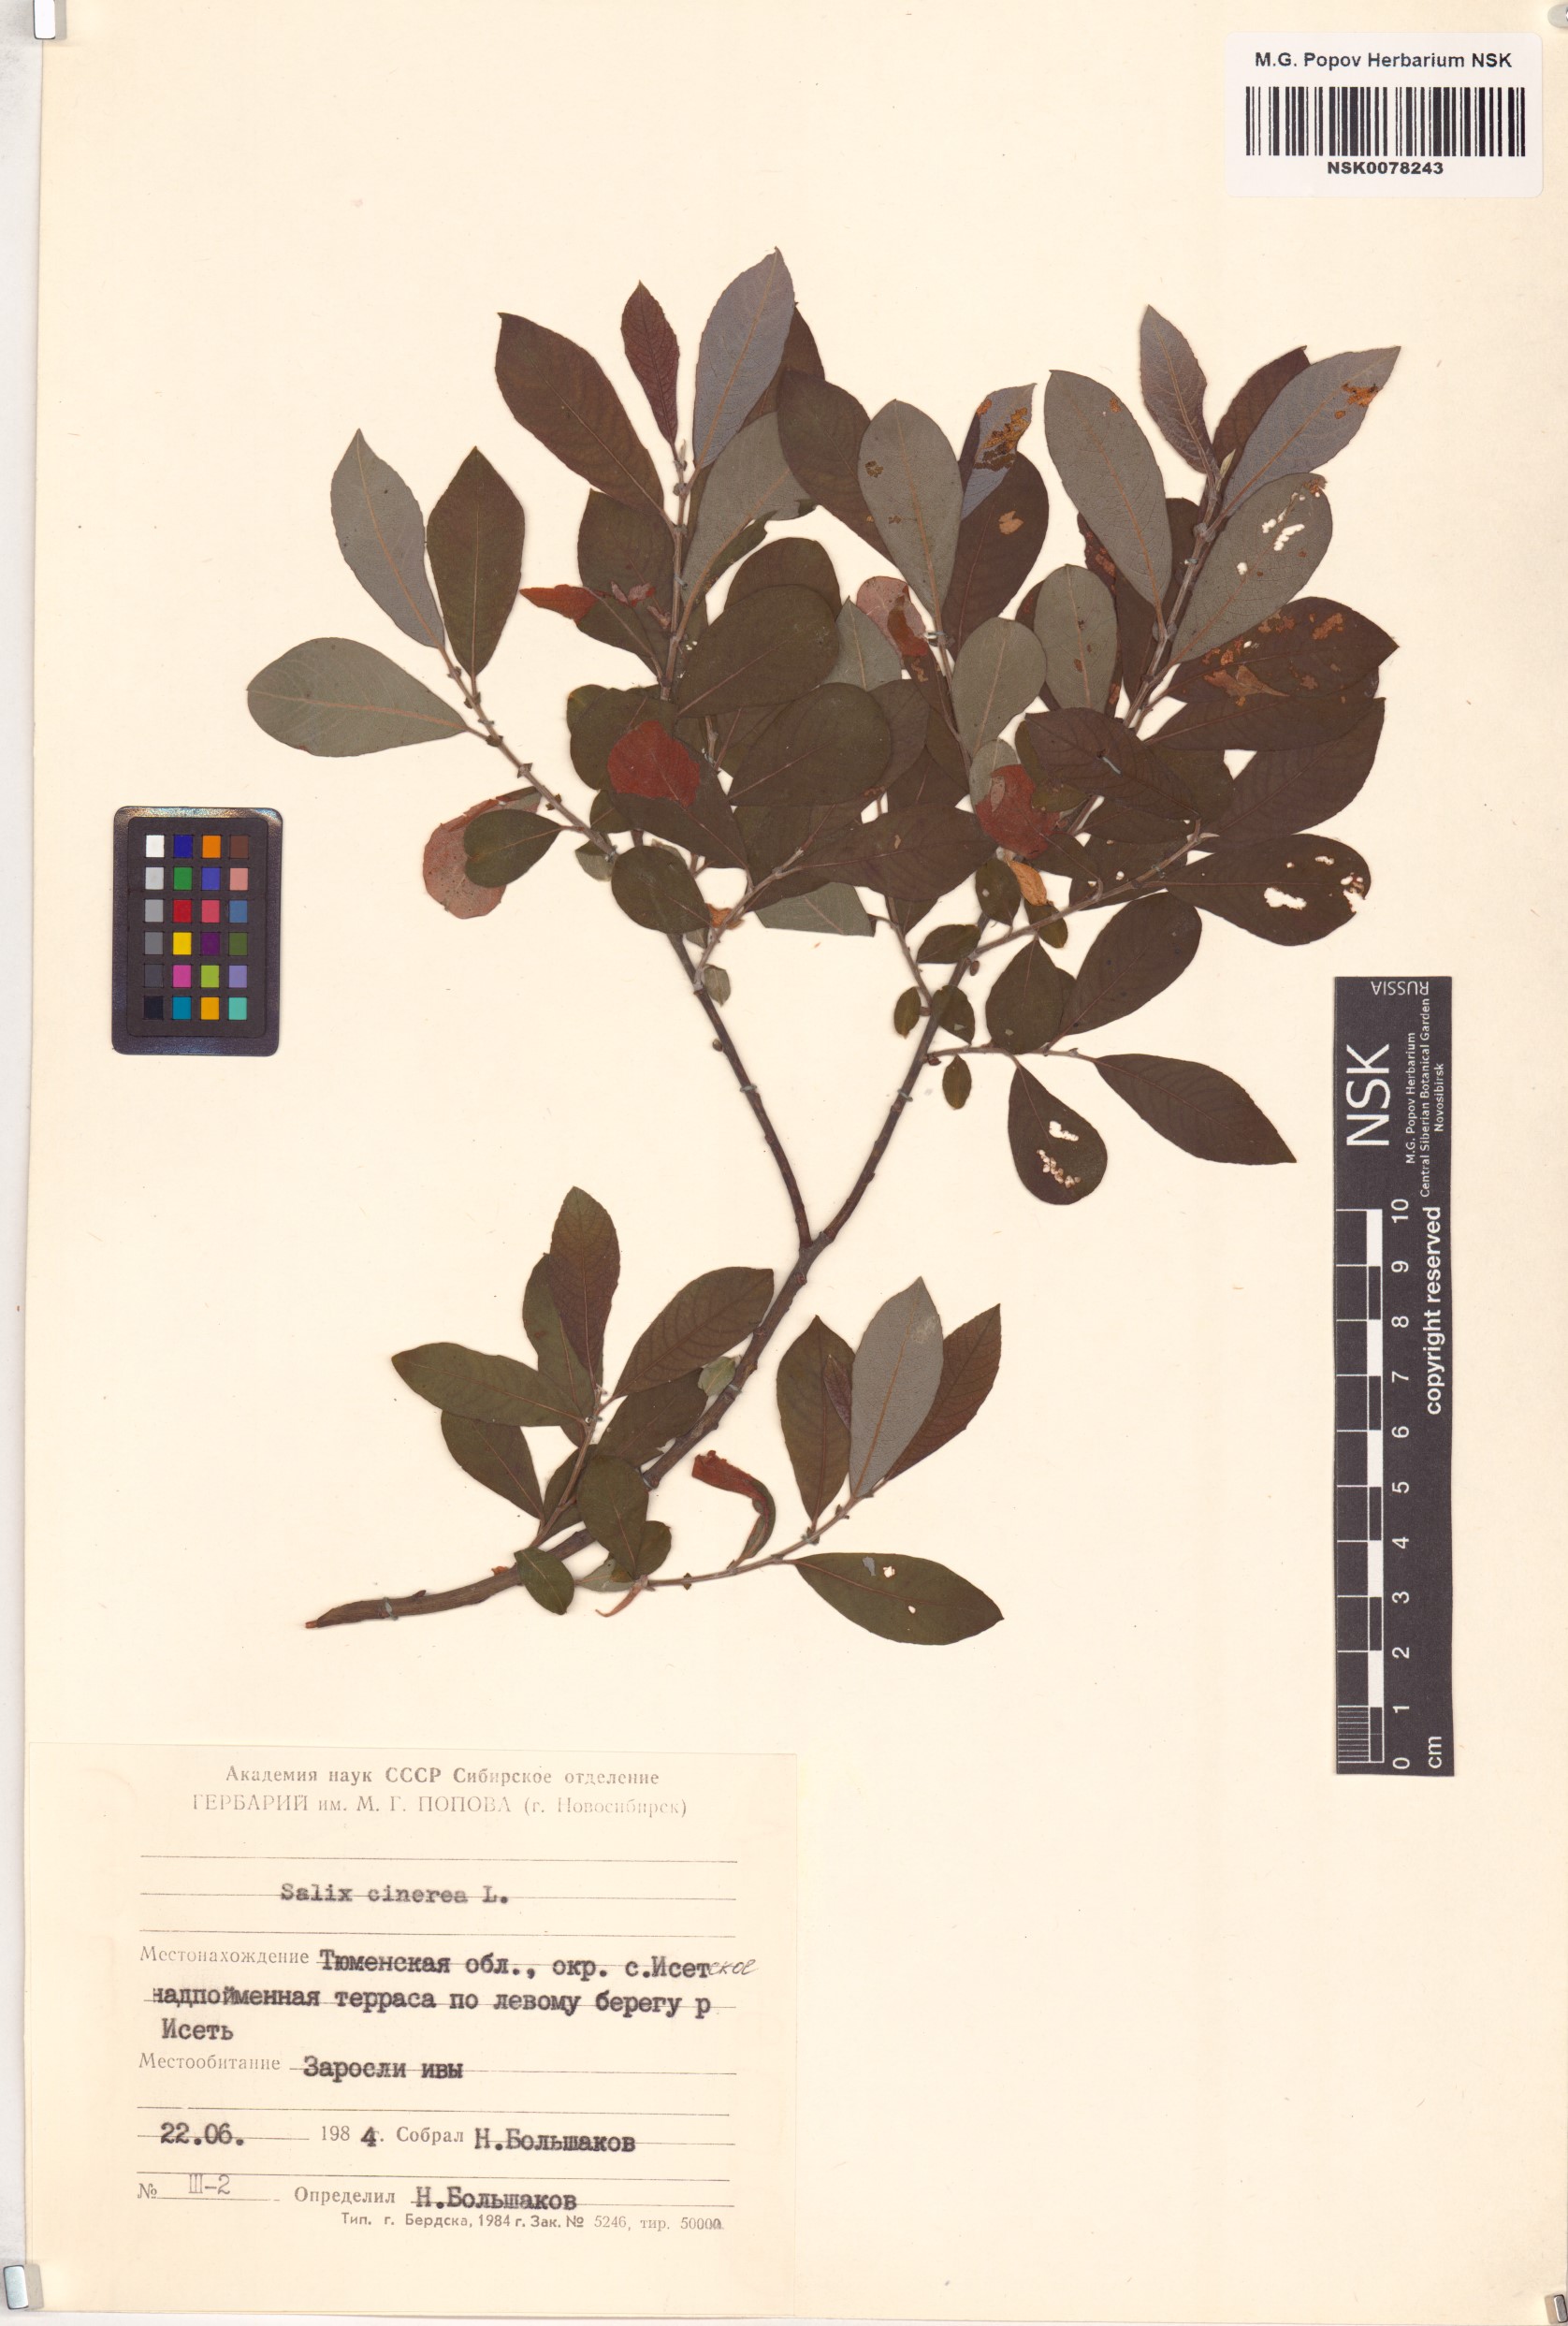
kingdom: Plantae
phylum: Tracheophyta
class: Magnoliopsida
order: Malpighiales
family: Salicaceae
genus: Salix
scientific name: Salix cinerea
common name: Common sallow
